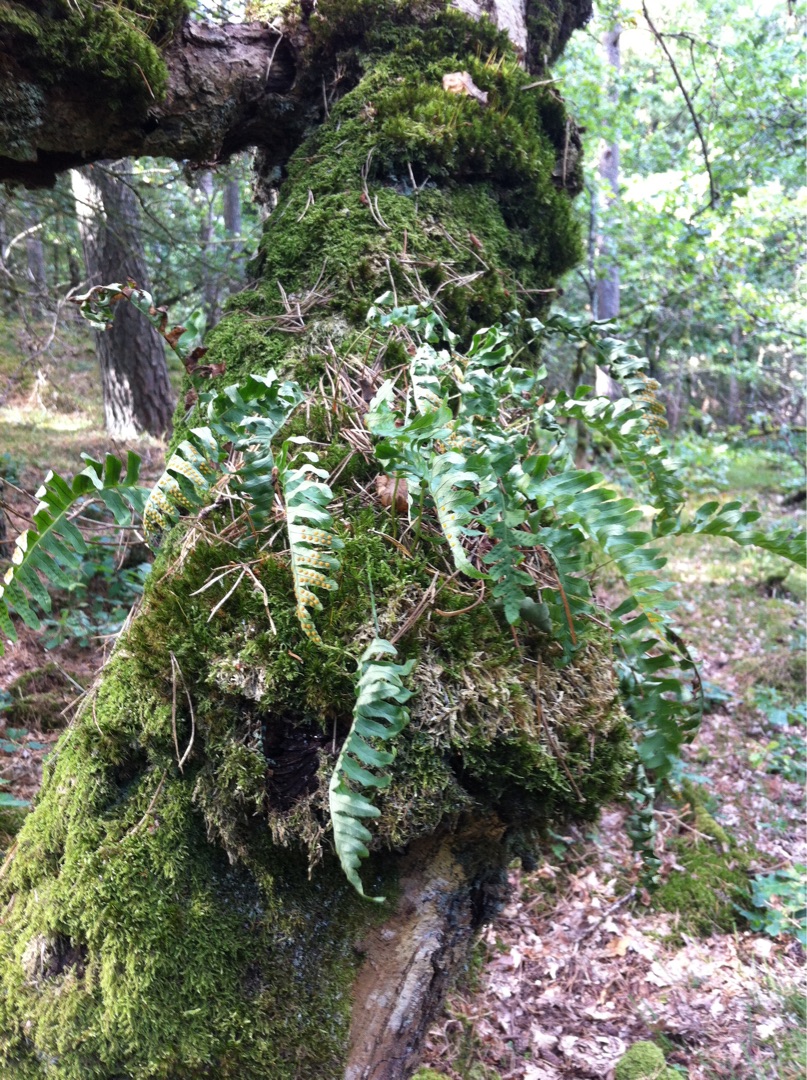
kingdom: Plantae
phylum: Tracheophyta
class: Polypodiopsida
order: Polypodiales
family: Polypodiaceae
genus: Polypodium
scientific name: Polypodium vulgare
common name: Almindelig engelsød
